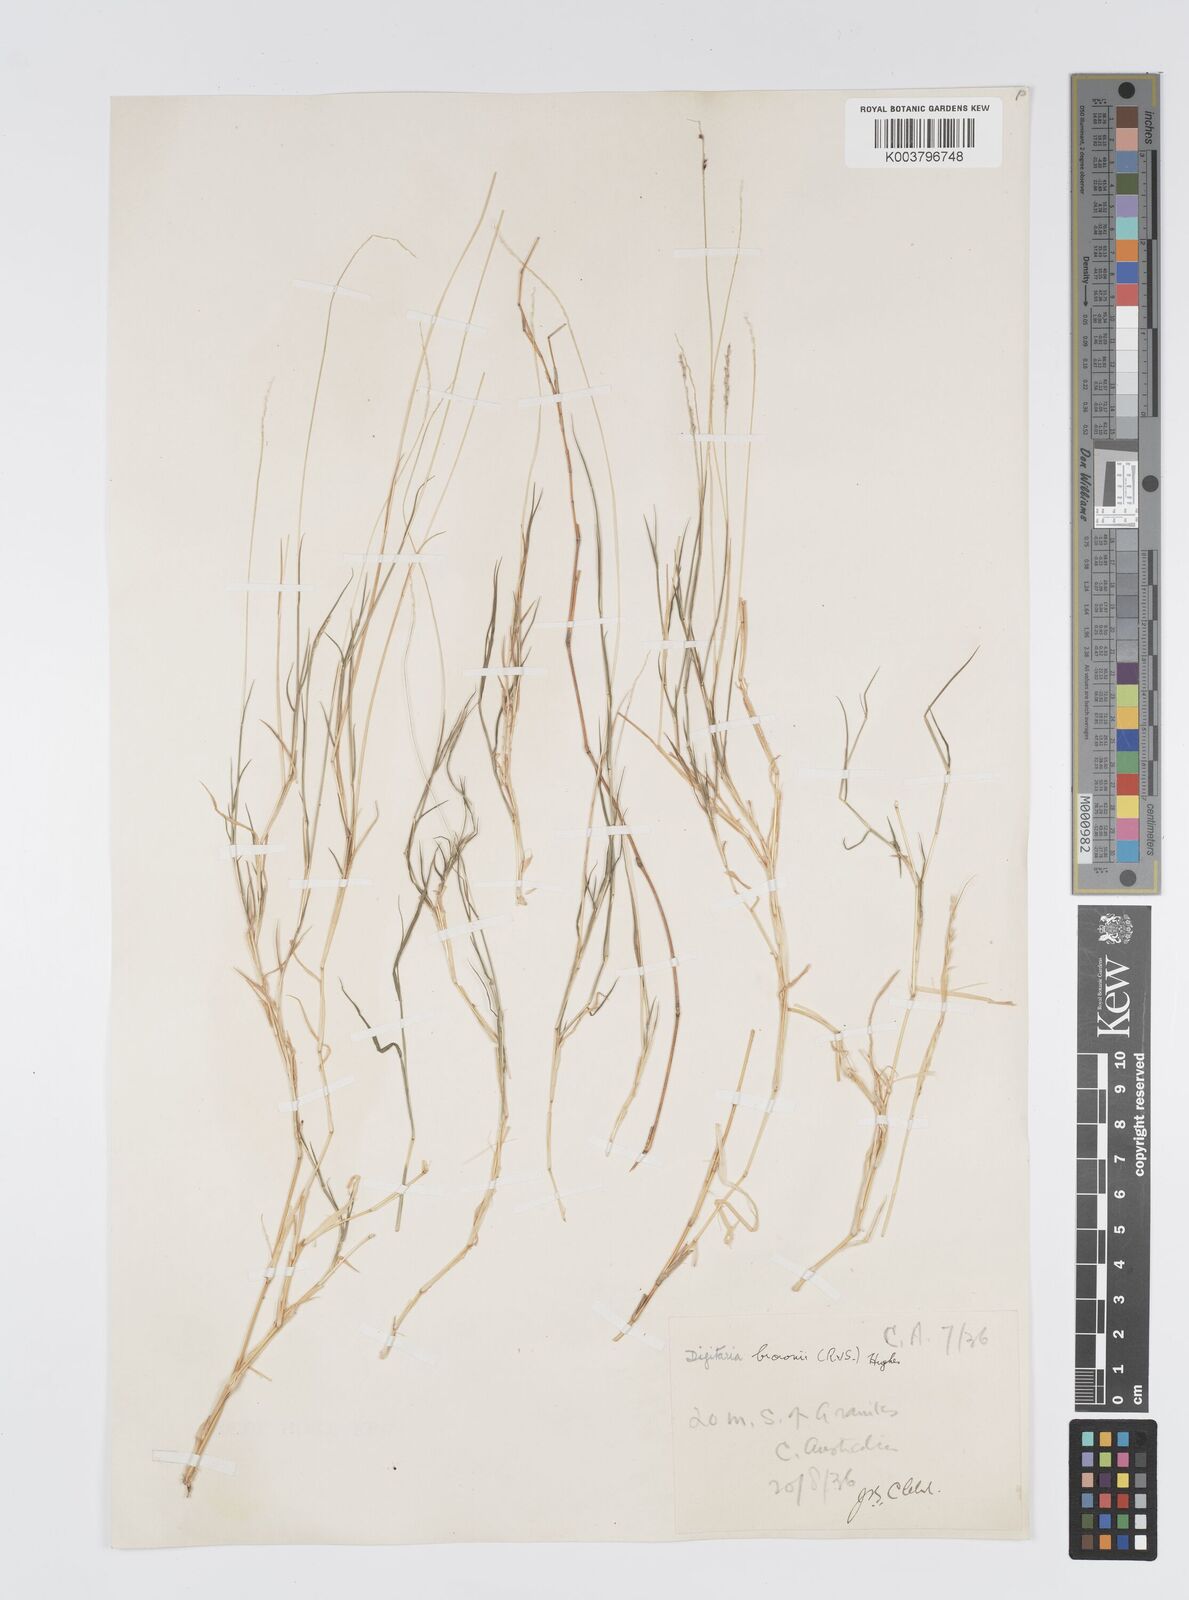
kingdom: Plantae
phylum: Tracheophyta
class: Liliopsida
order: Poales
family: Poaceae
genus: Digitaria
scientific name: Digitaria brownii
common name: Cotton grass
